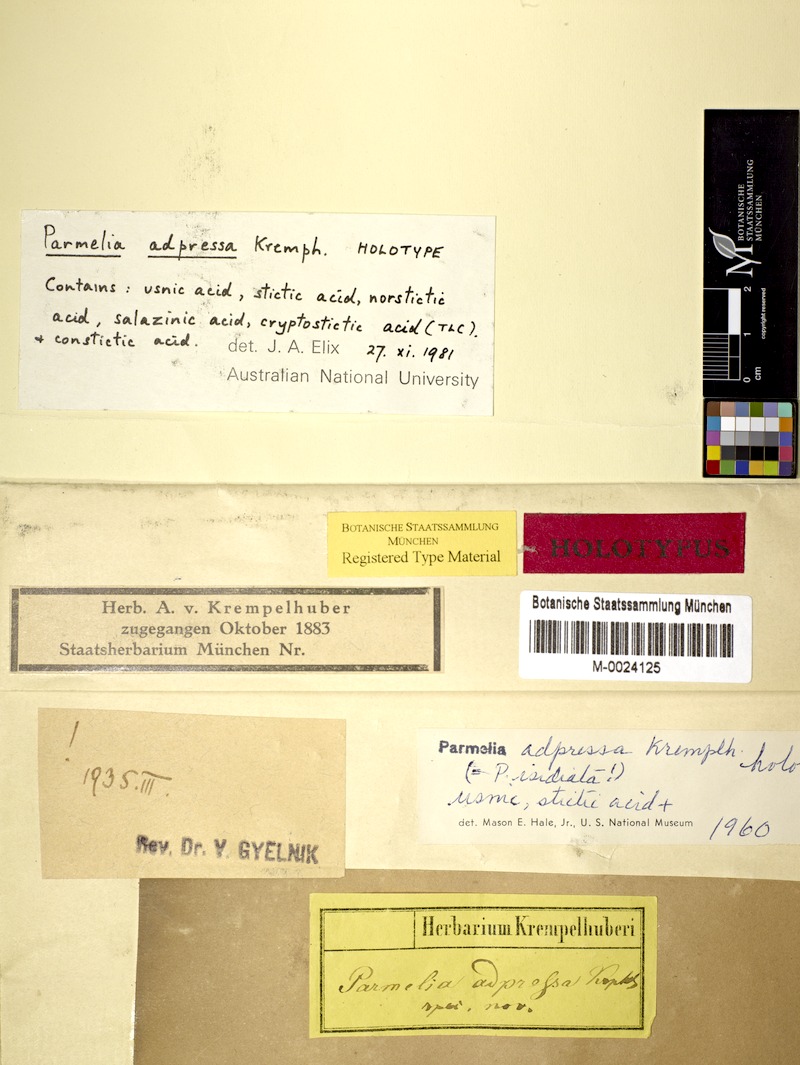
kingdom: Fungi
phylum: Ascomycota
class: Lecanoromycetes
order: Lecanorales
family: Parmeliaceae
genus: Xanthoparmelia
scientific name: Xanthoparmelia succedans
